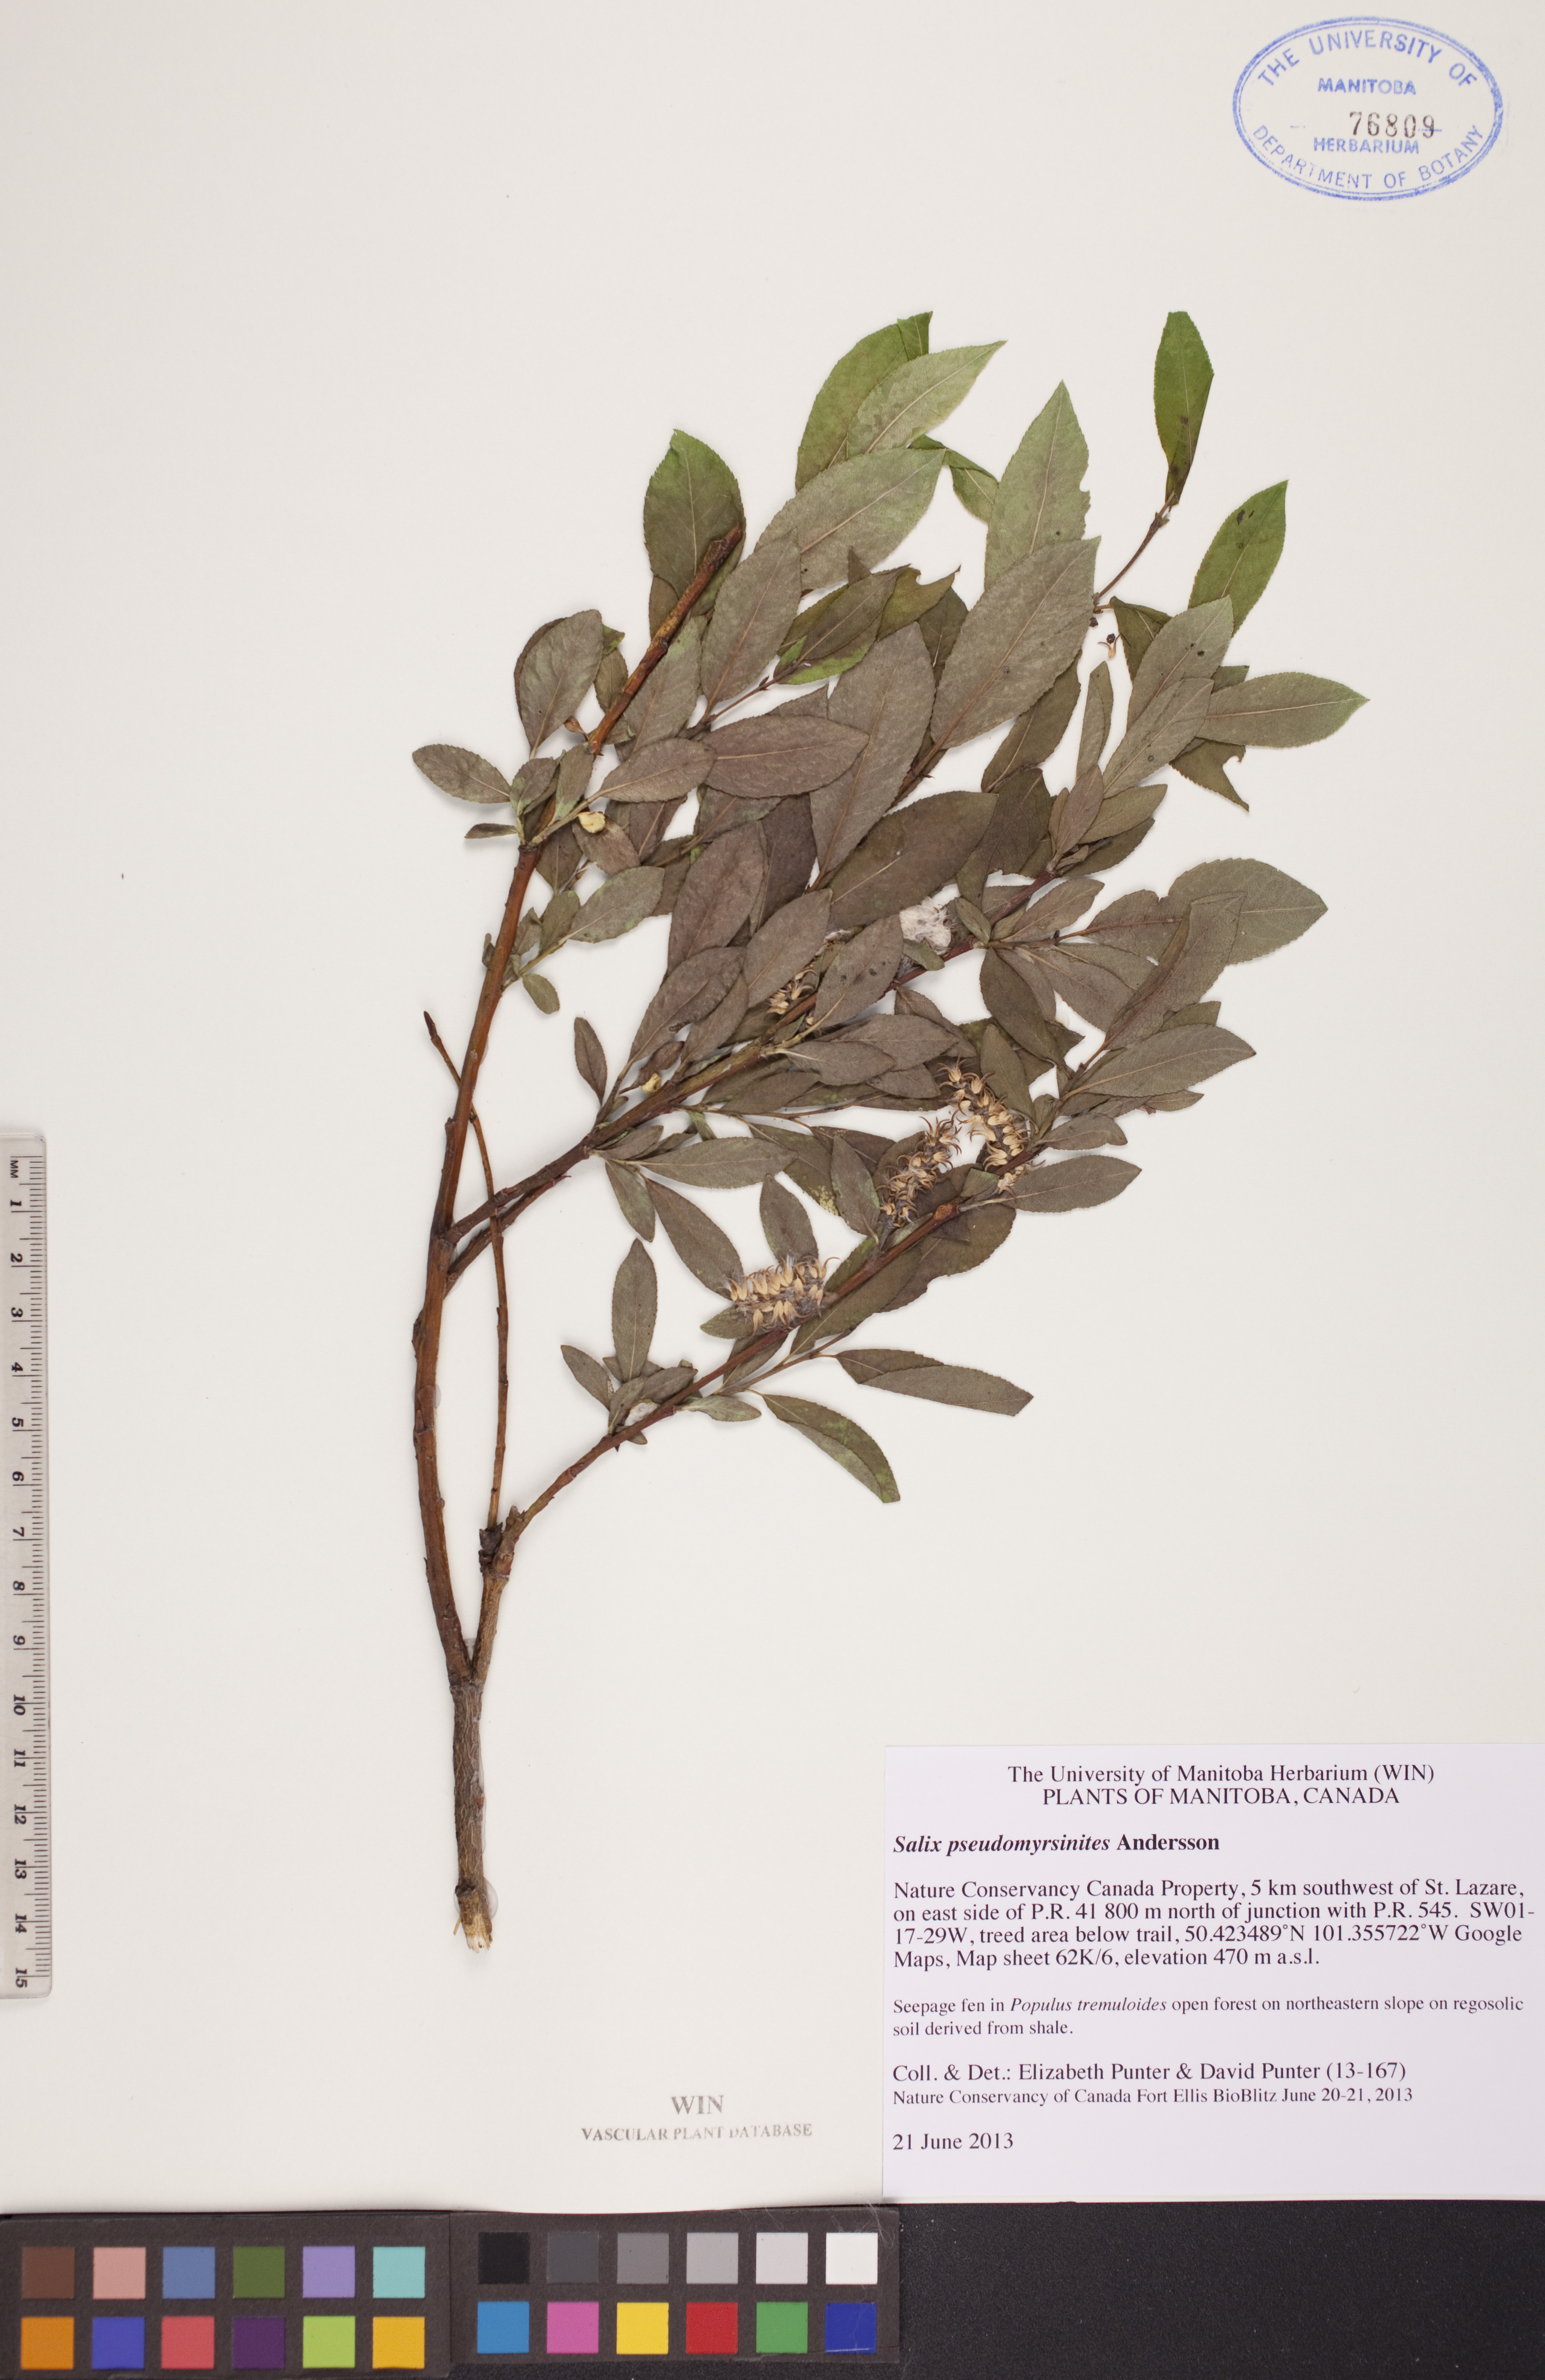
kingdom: Plantae
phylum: Tracheophyta
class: Magnoliopsida
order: Malpighiales
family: Salicaceae
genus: Salix
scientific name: Salix pseudomyrsinites
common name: Tall blueberry willow
